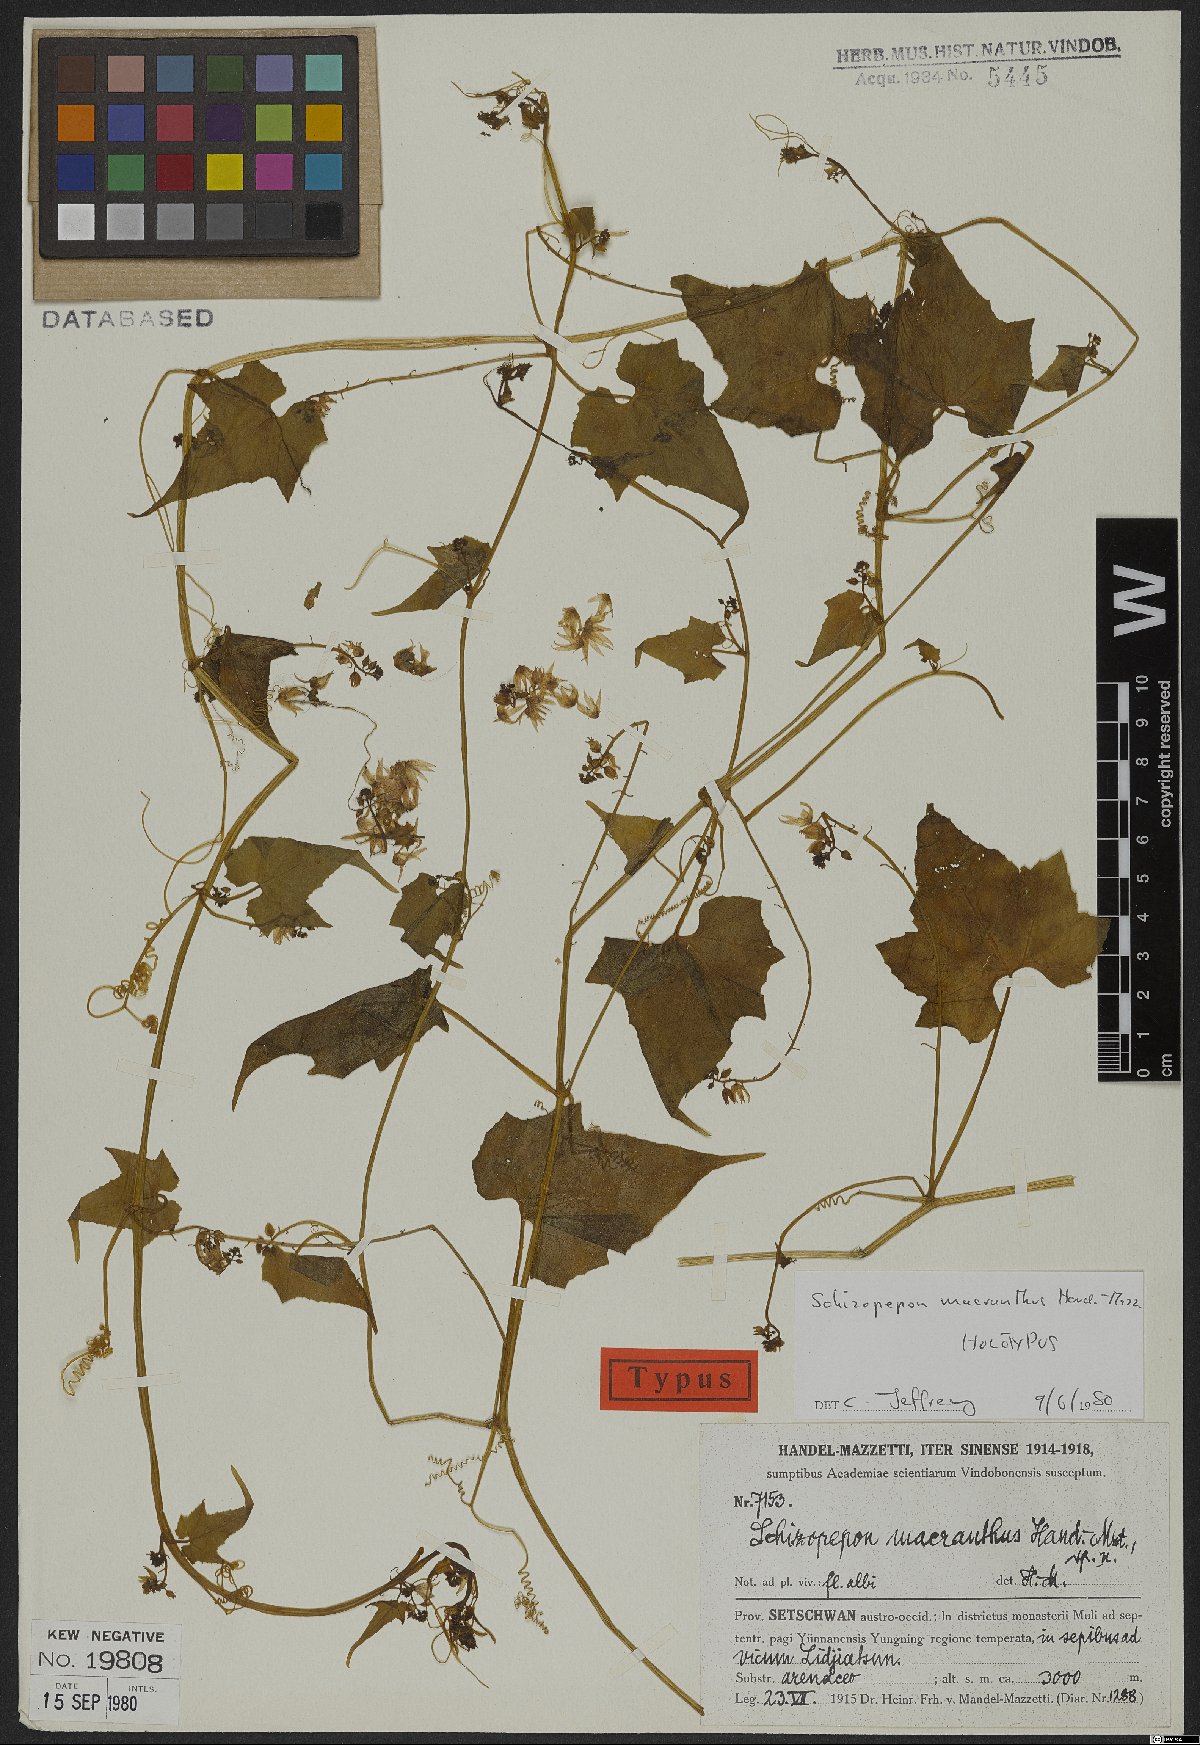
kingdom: Plantae
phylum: Tracheophyta
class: Magnoliopsida
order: Cucurbitales
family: Cucurbitaceae
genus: Schizopepon
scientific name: Schizopepon macranthus
